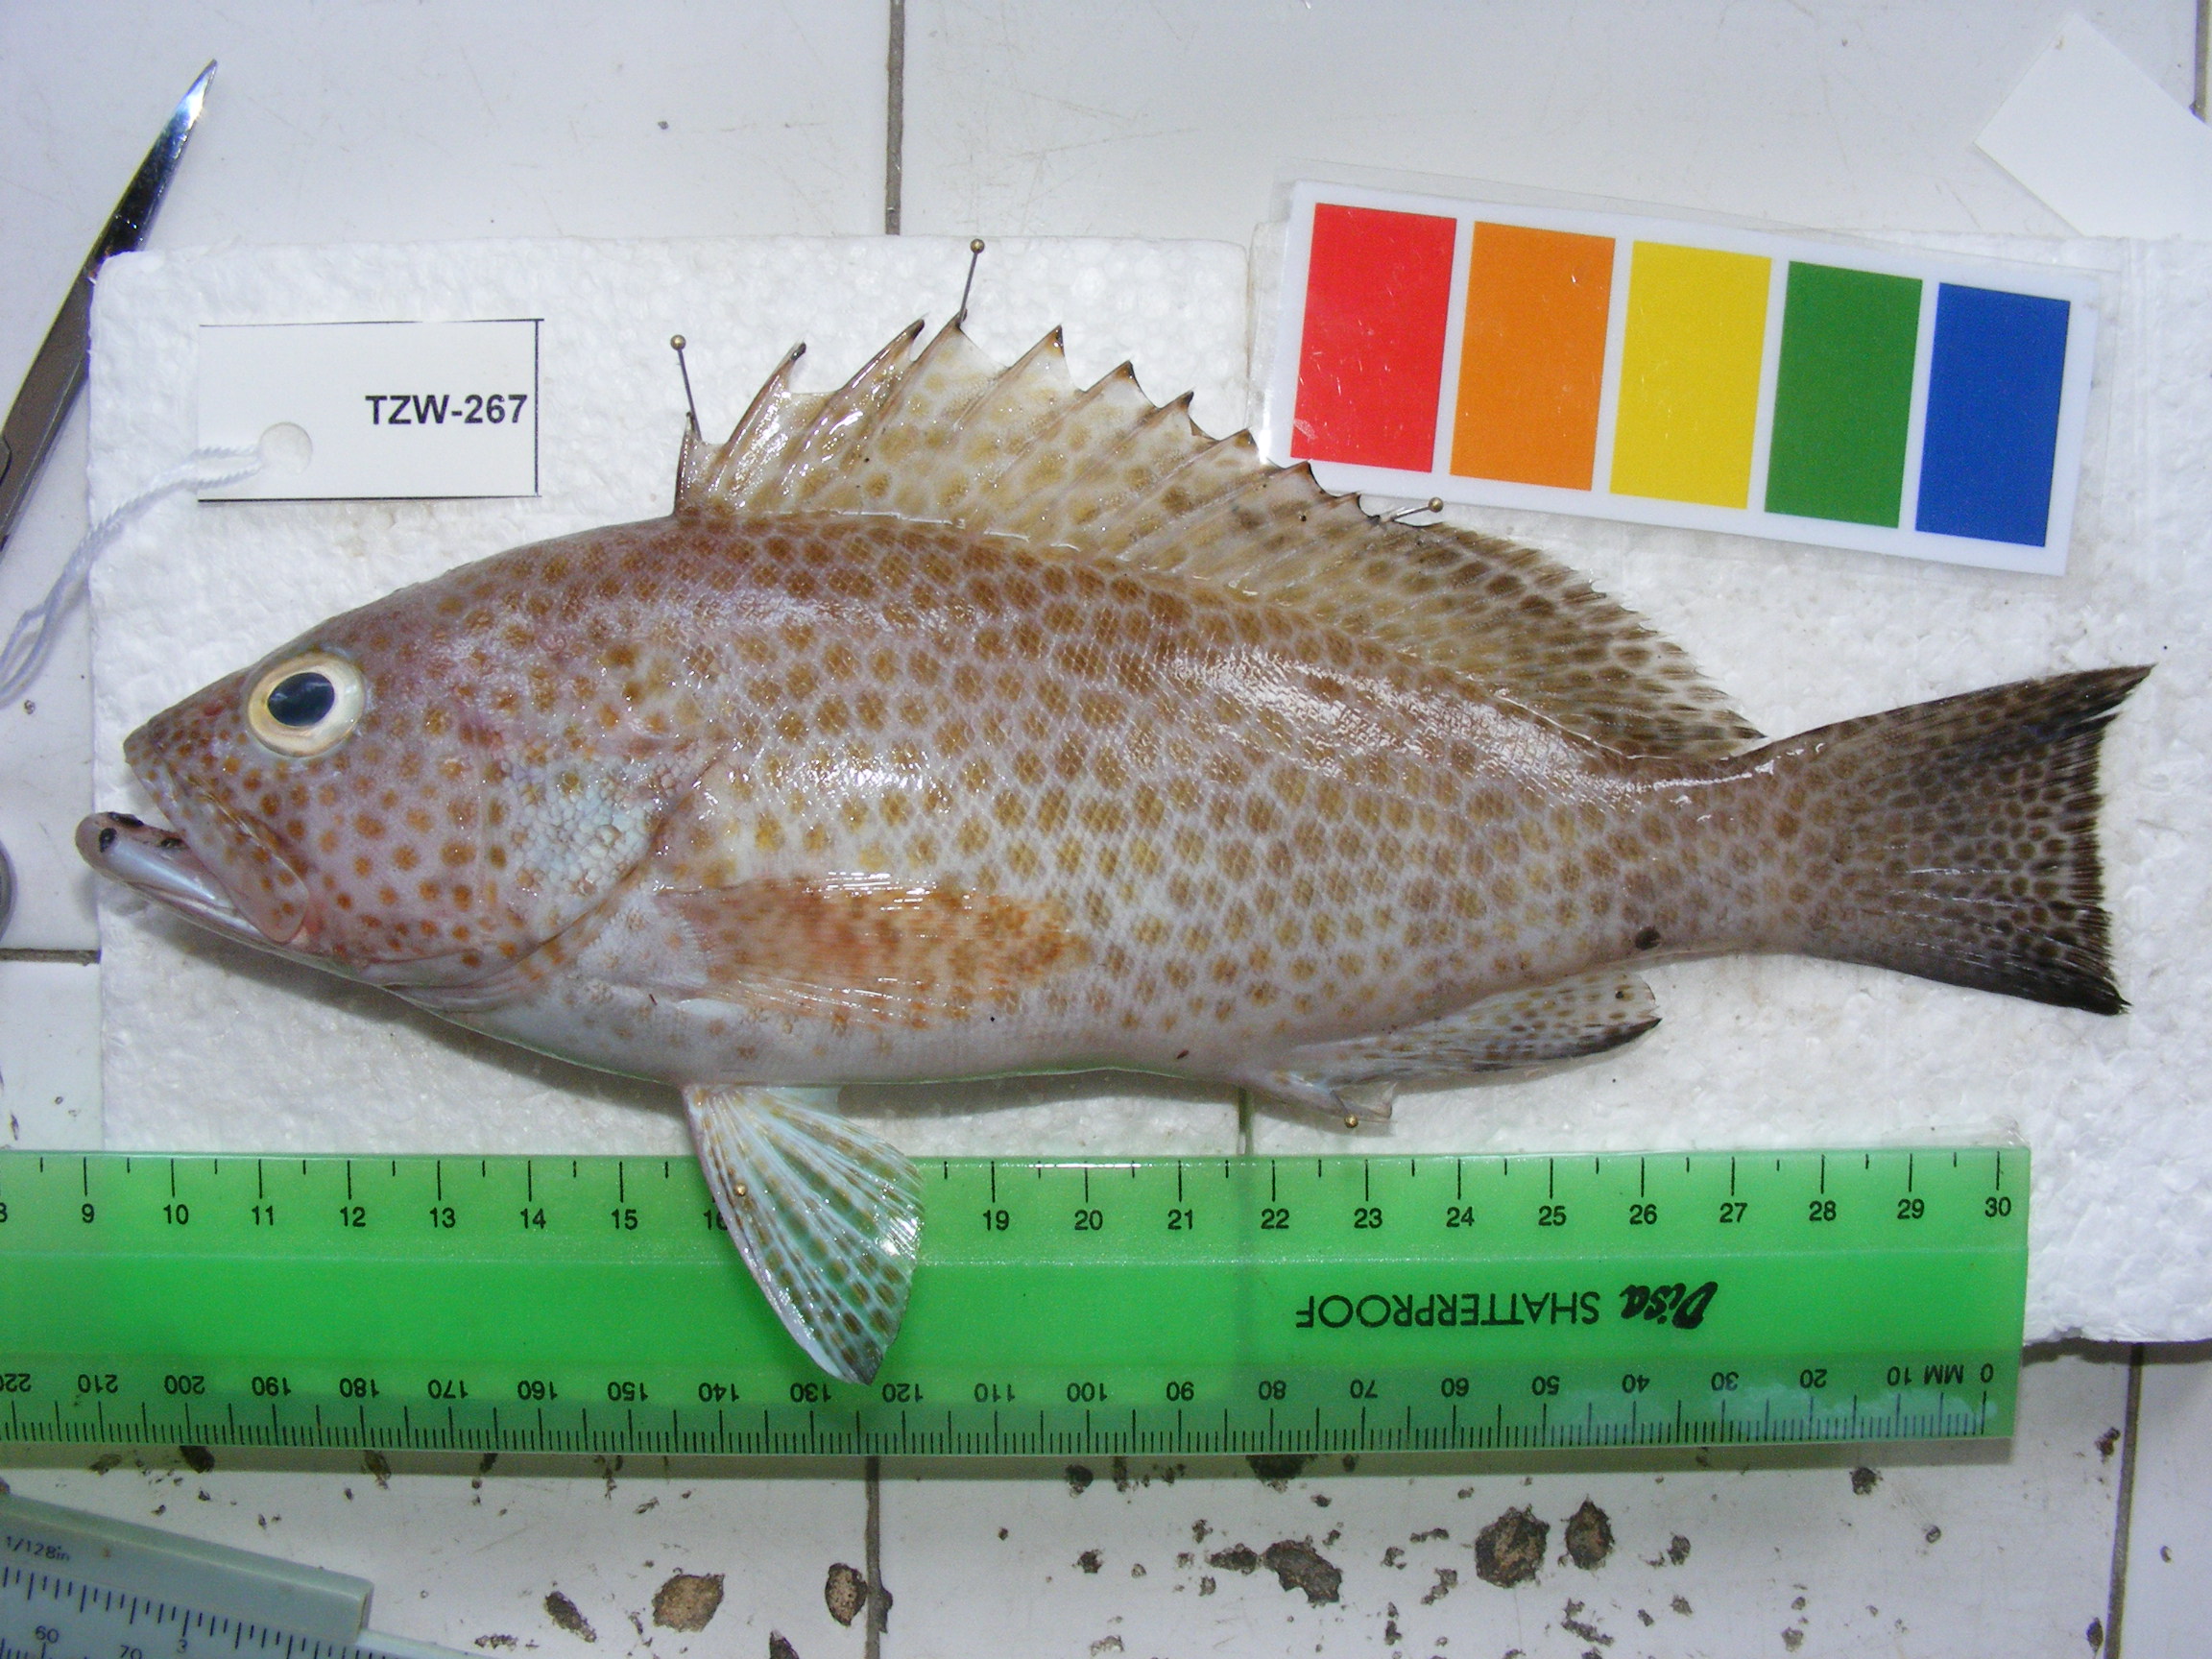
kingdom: Animalia
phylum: Chordata
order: Perciformes
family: Serranidae
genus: Epinephelus
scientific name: Epinephelus chlorostigma
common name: Brownspotted grouper
